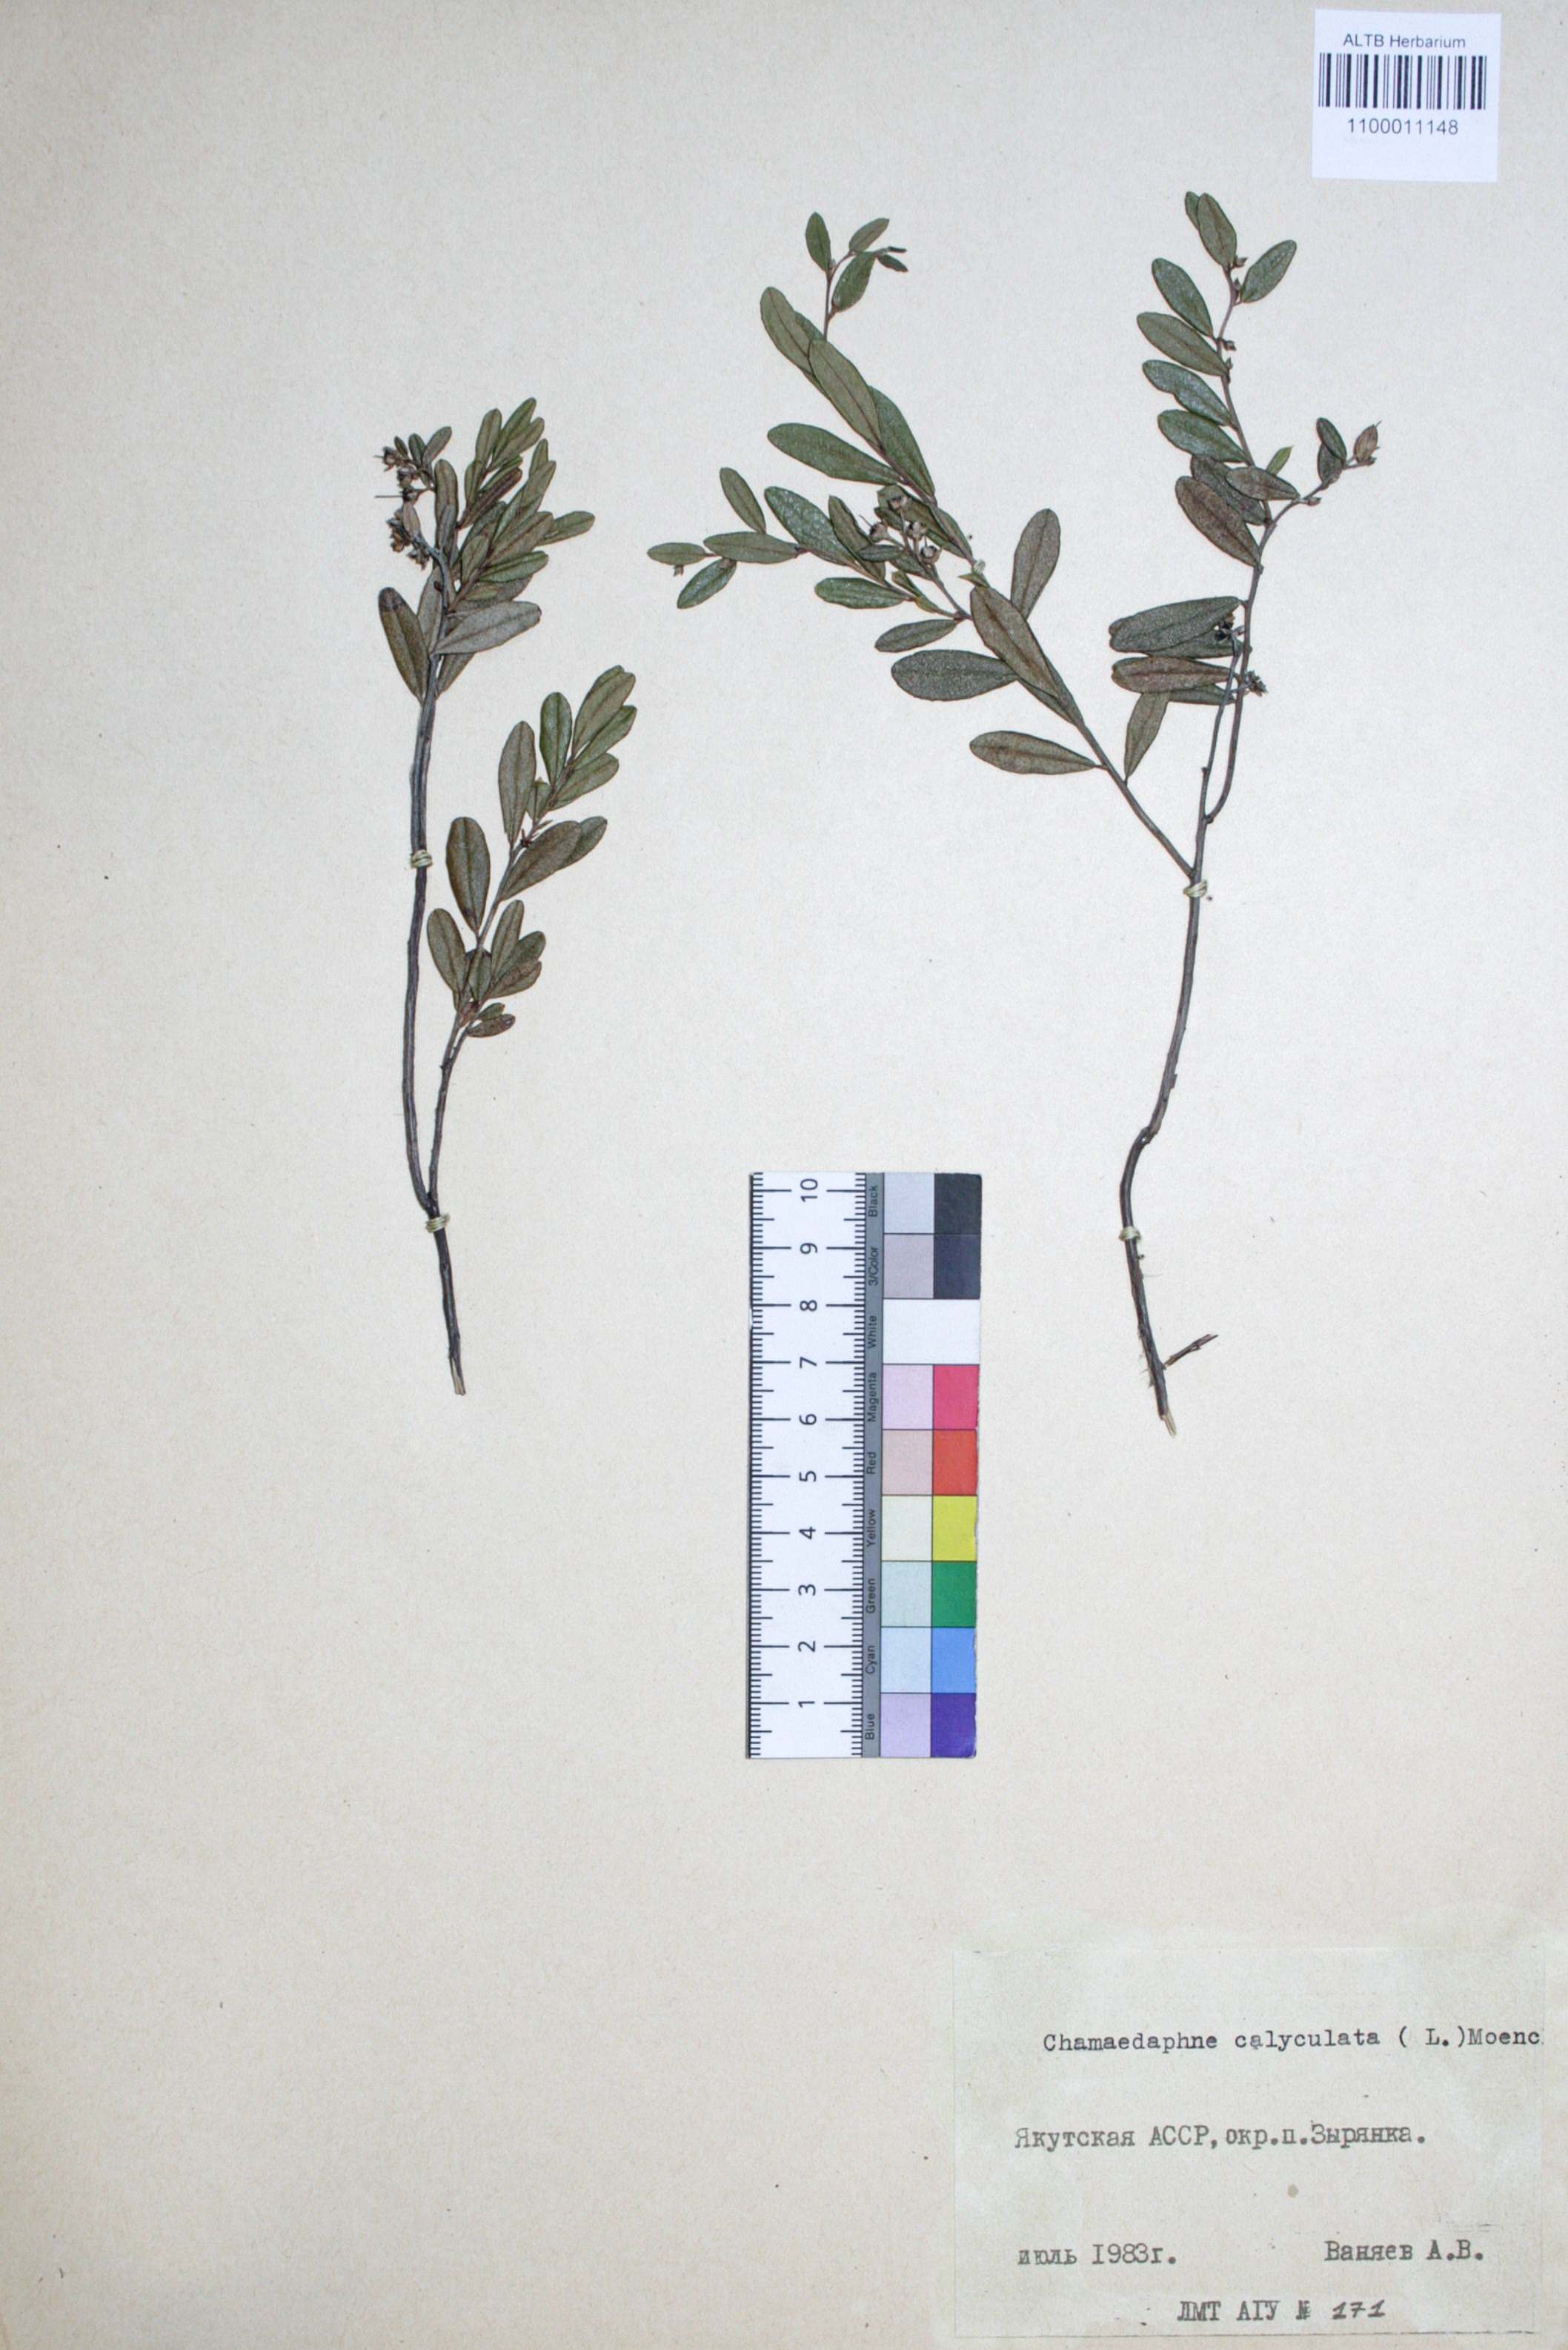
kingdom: Plantae
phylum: Tracheophyta
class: Magnoliopsida
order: Ericales
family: Ericaceae
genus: Chamaedaphne
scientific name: Chamaedaphne calyculata
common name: Leatherleaf
